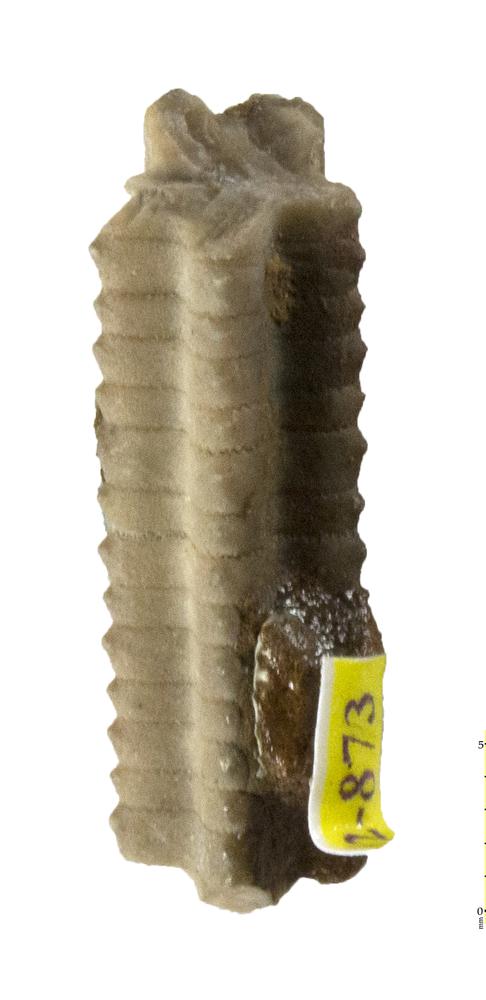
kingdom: Animalia
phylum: Echinodermata
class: Crinoidea
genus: Baltocrinus
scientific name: Baltocrinus
